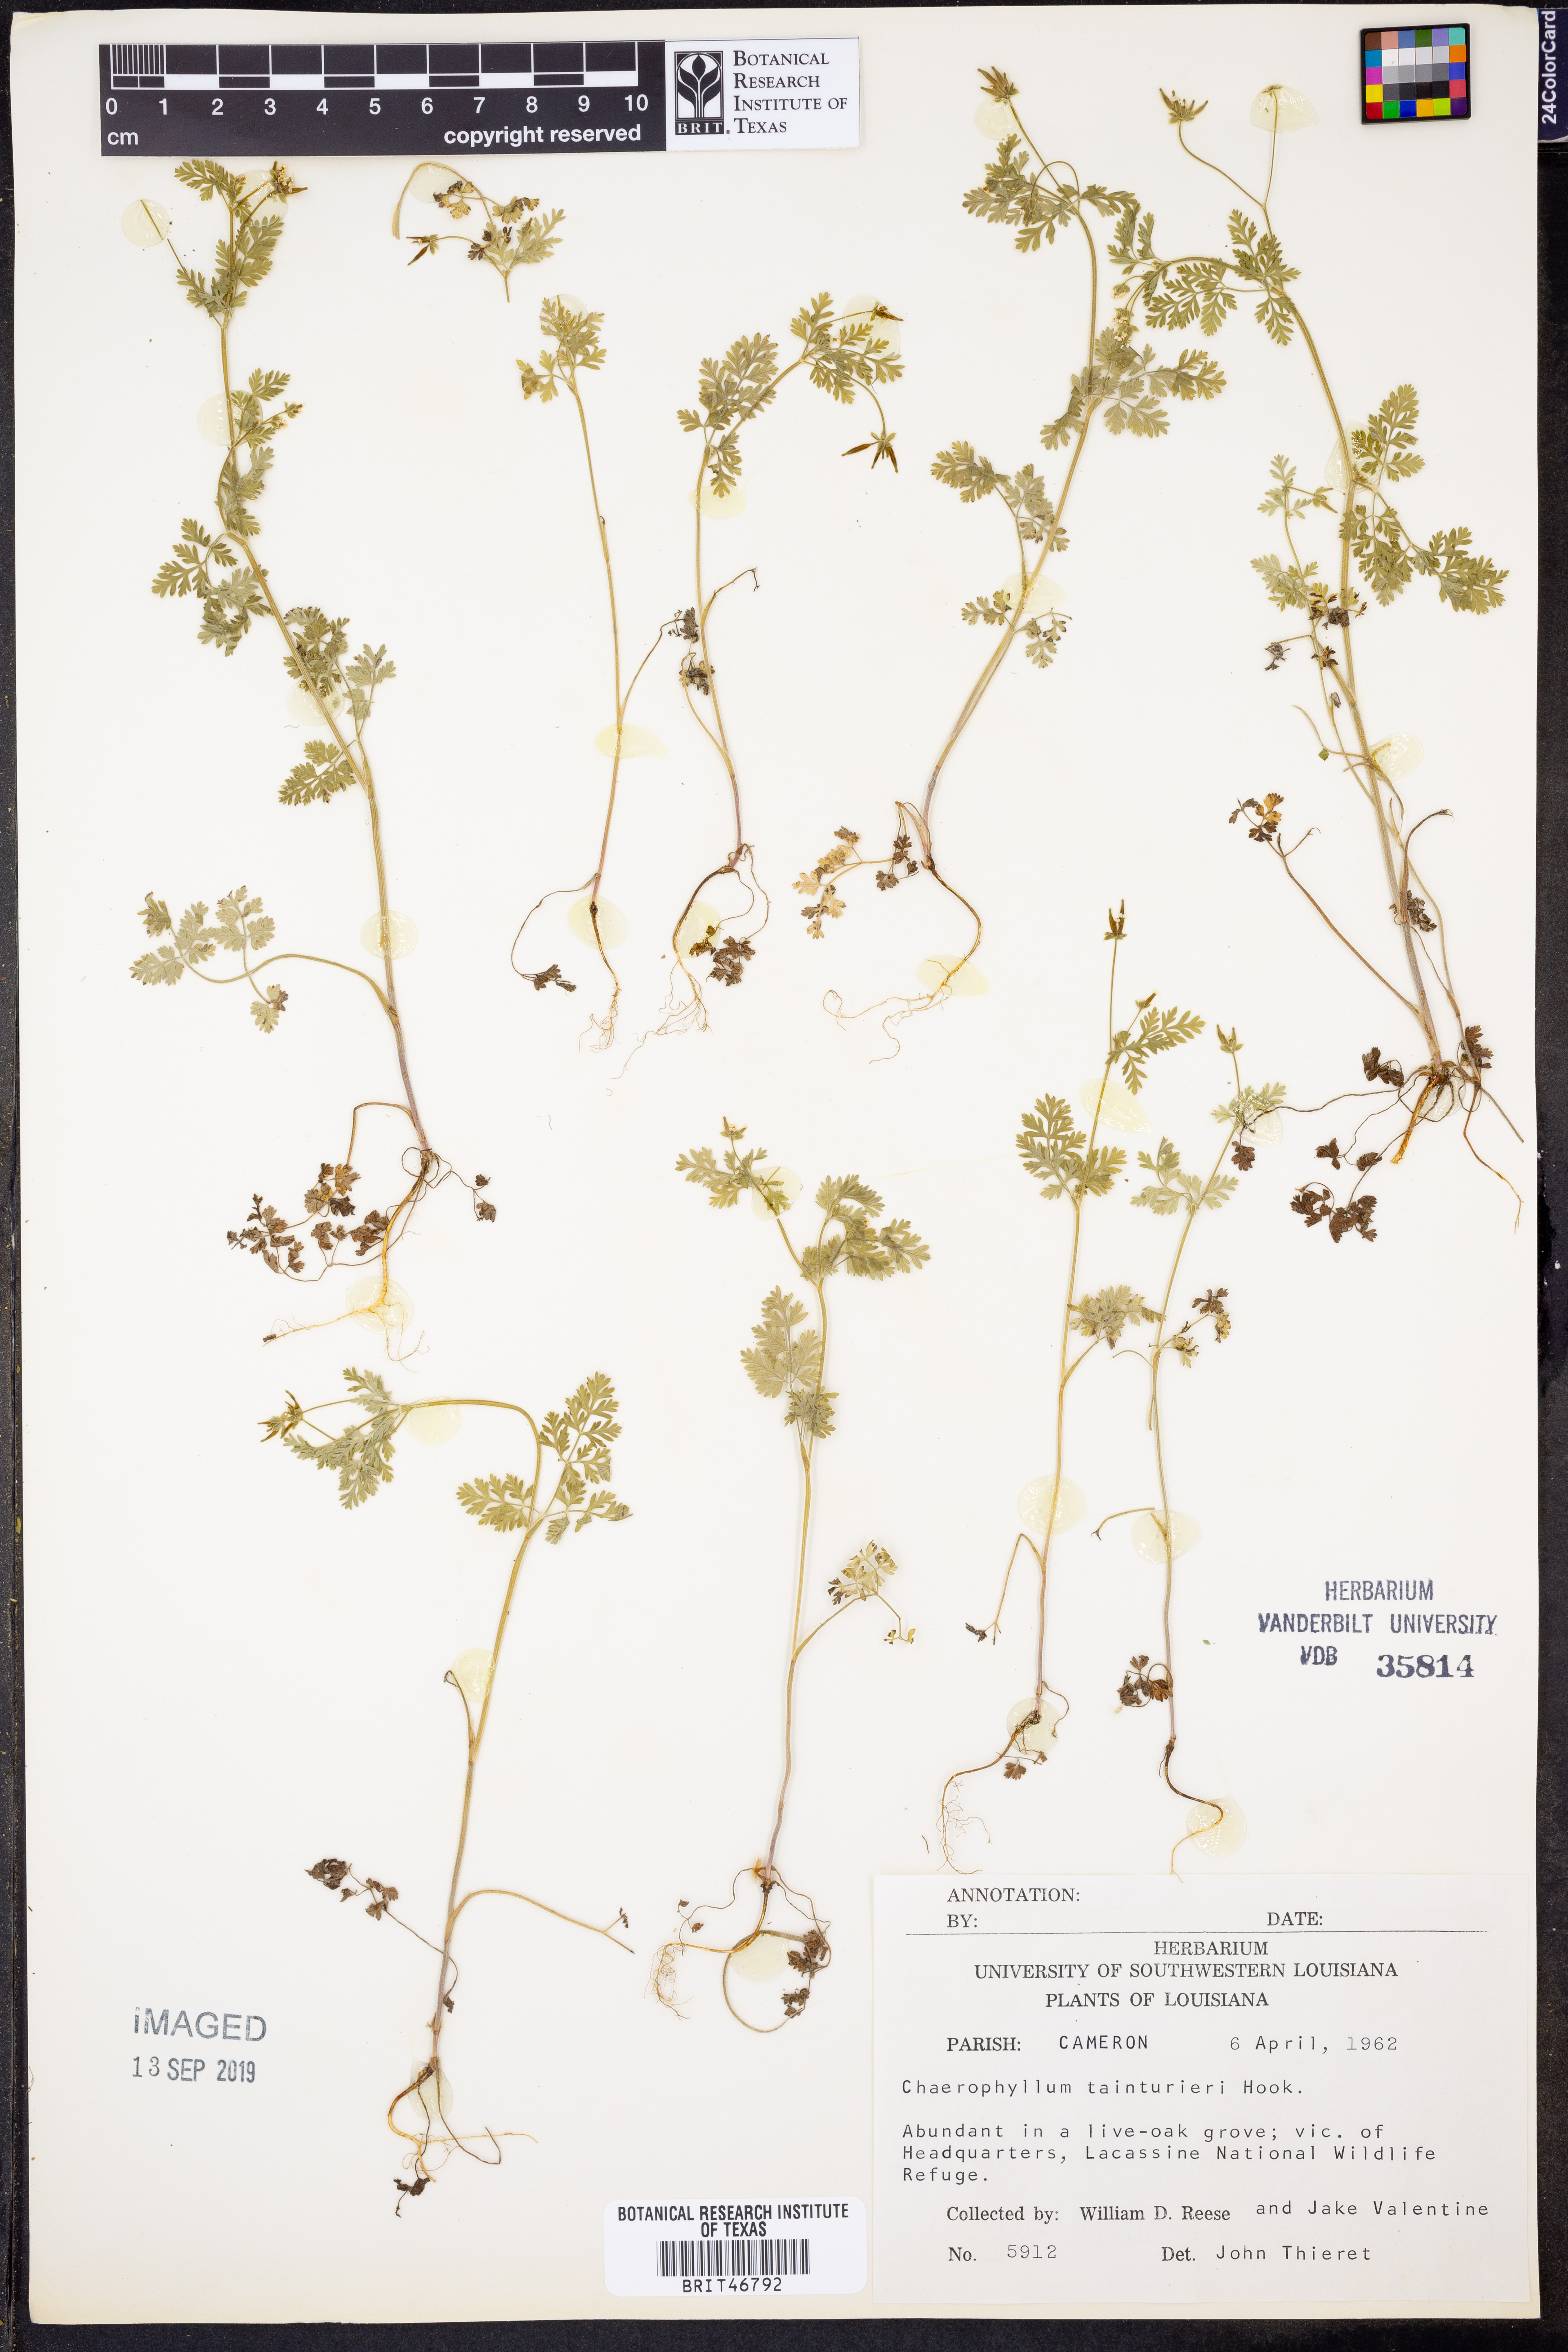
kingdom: Plantae
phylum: Tracheophyta
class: Magnoliopsida
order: Apiales
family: Apiaceae
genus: Chaerophyllum
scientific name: Chaerophyllum tainturieri
